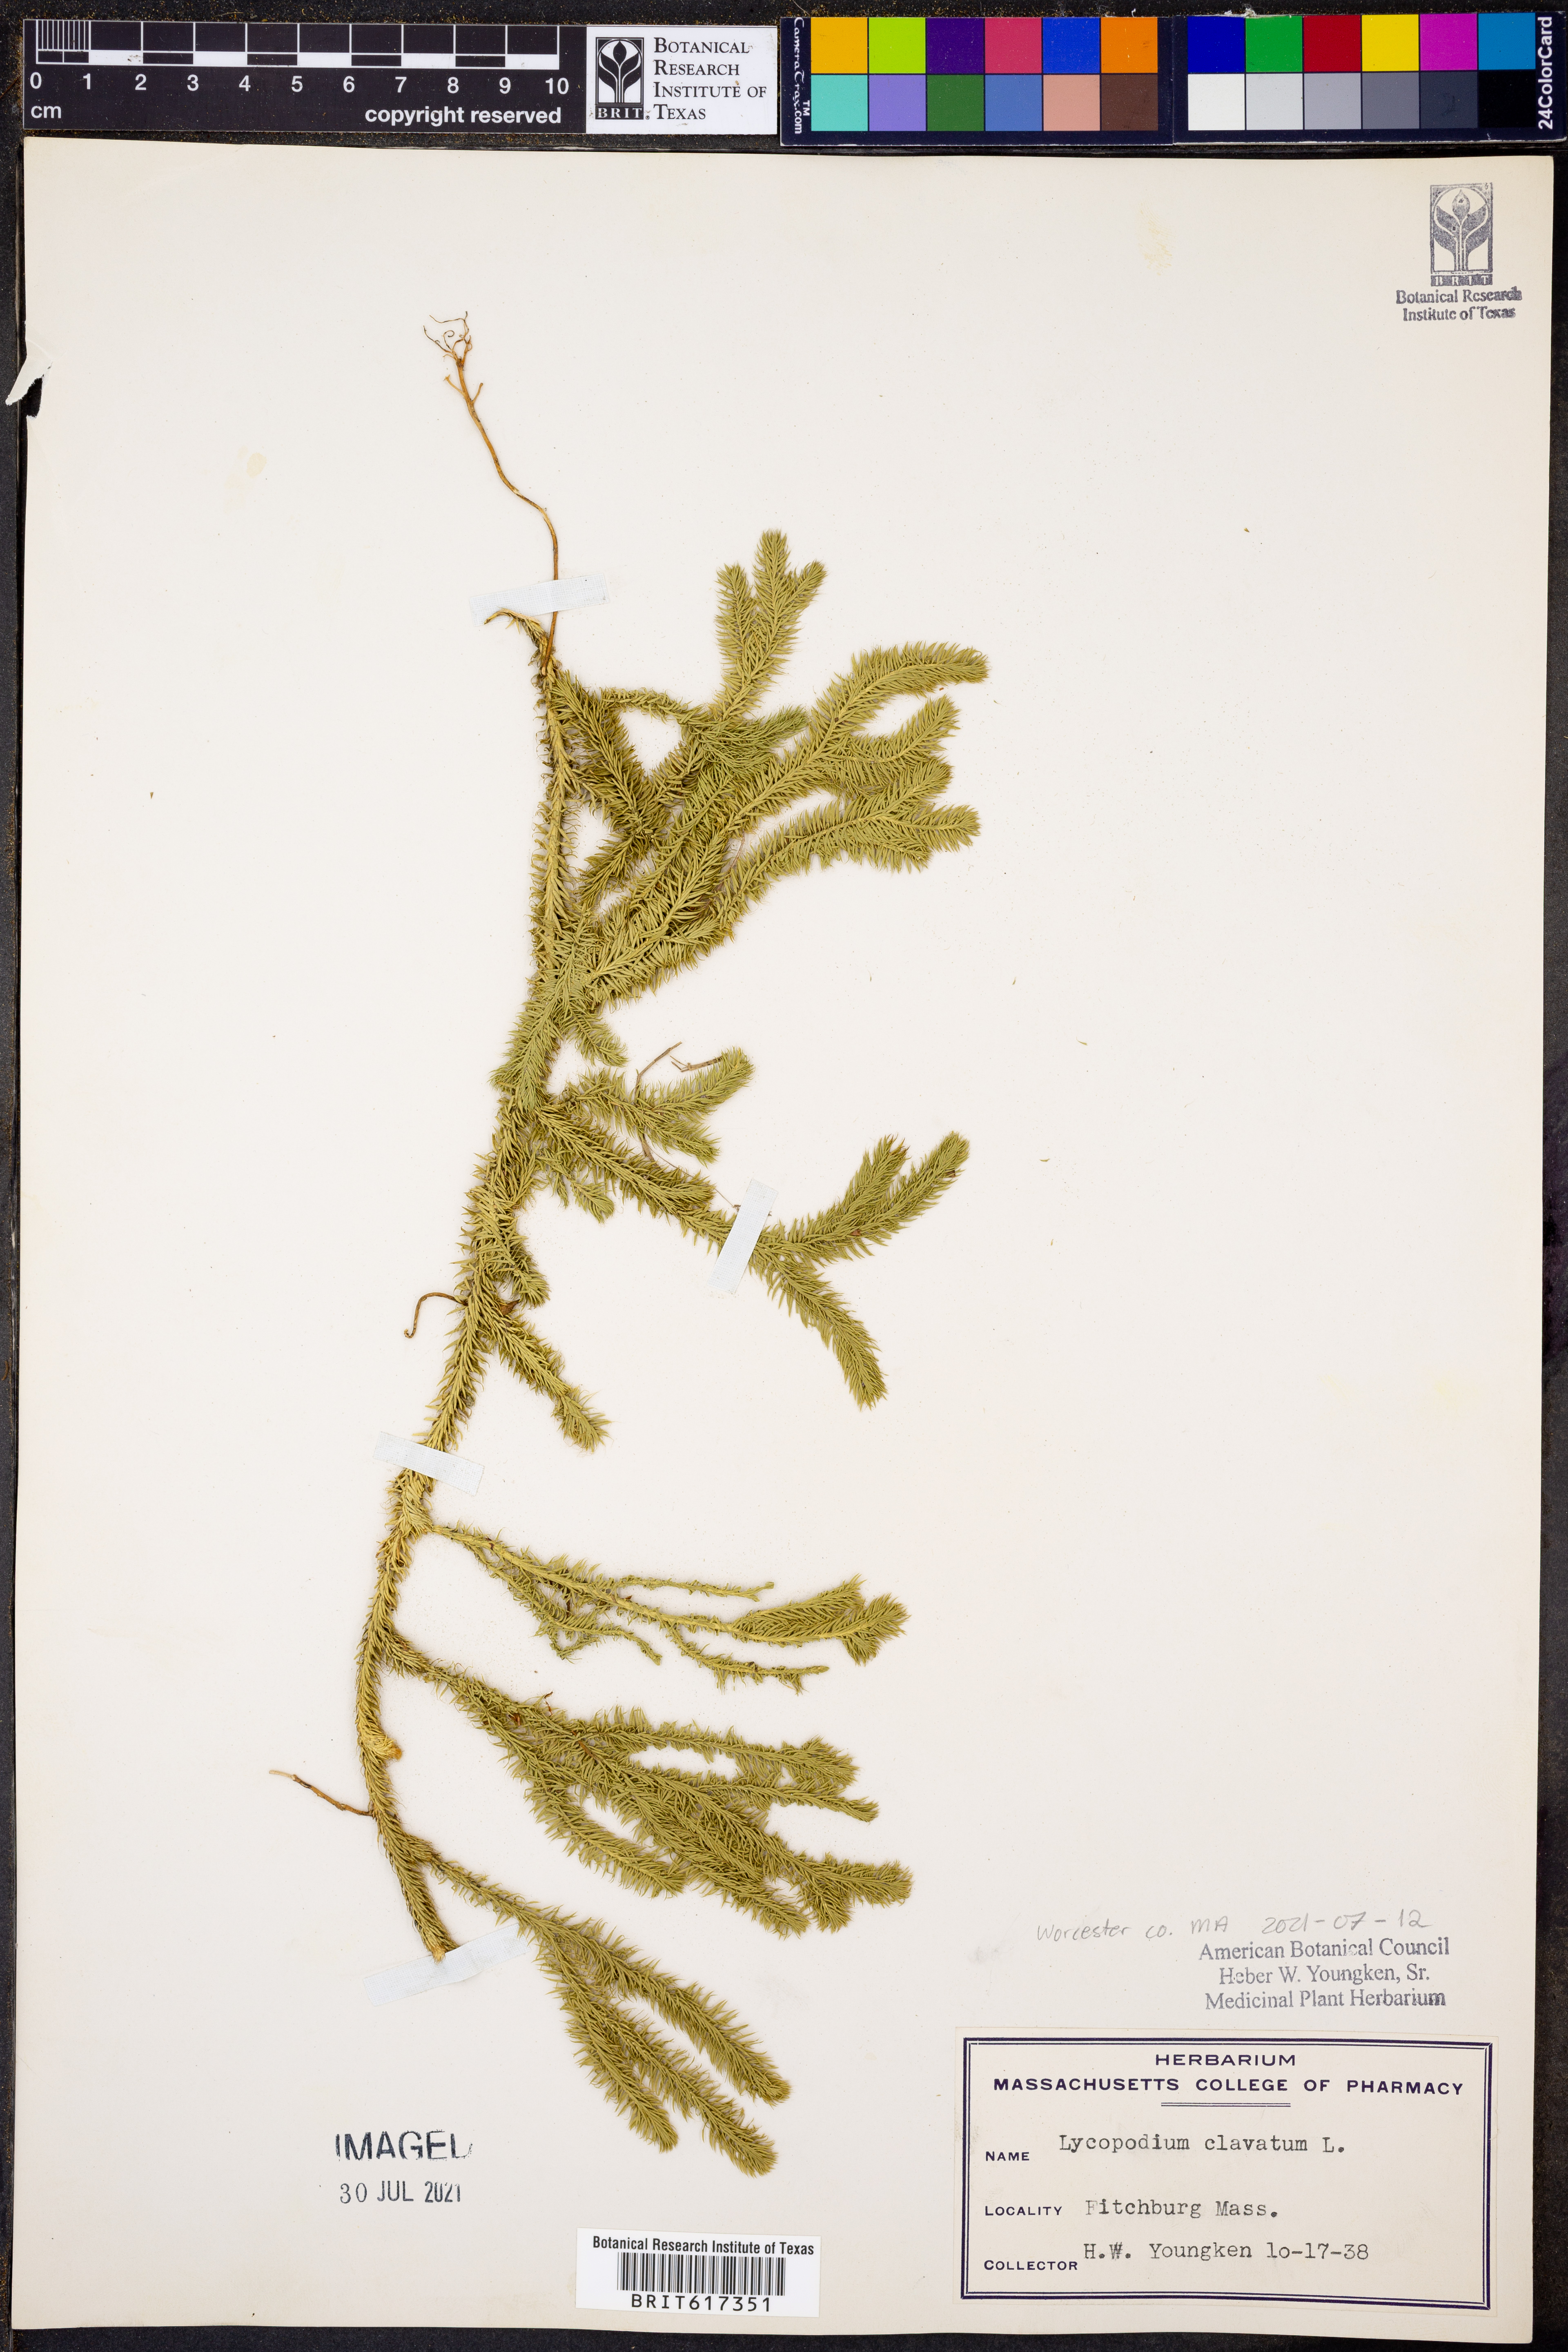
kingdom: Plantae
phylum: Tracheophyta
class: Lycopodiopsida
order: Lycopodiales
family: Lycopodiaceae
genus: Lycopodium
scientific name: Lycopodium clavatum
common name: Stag's-horn clubmoss
